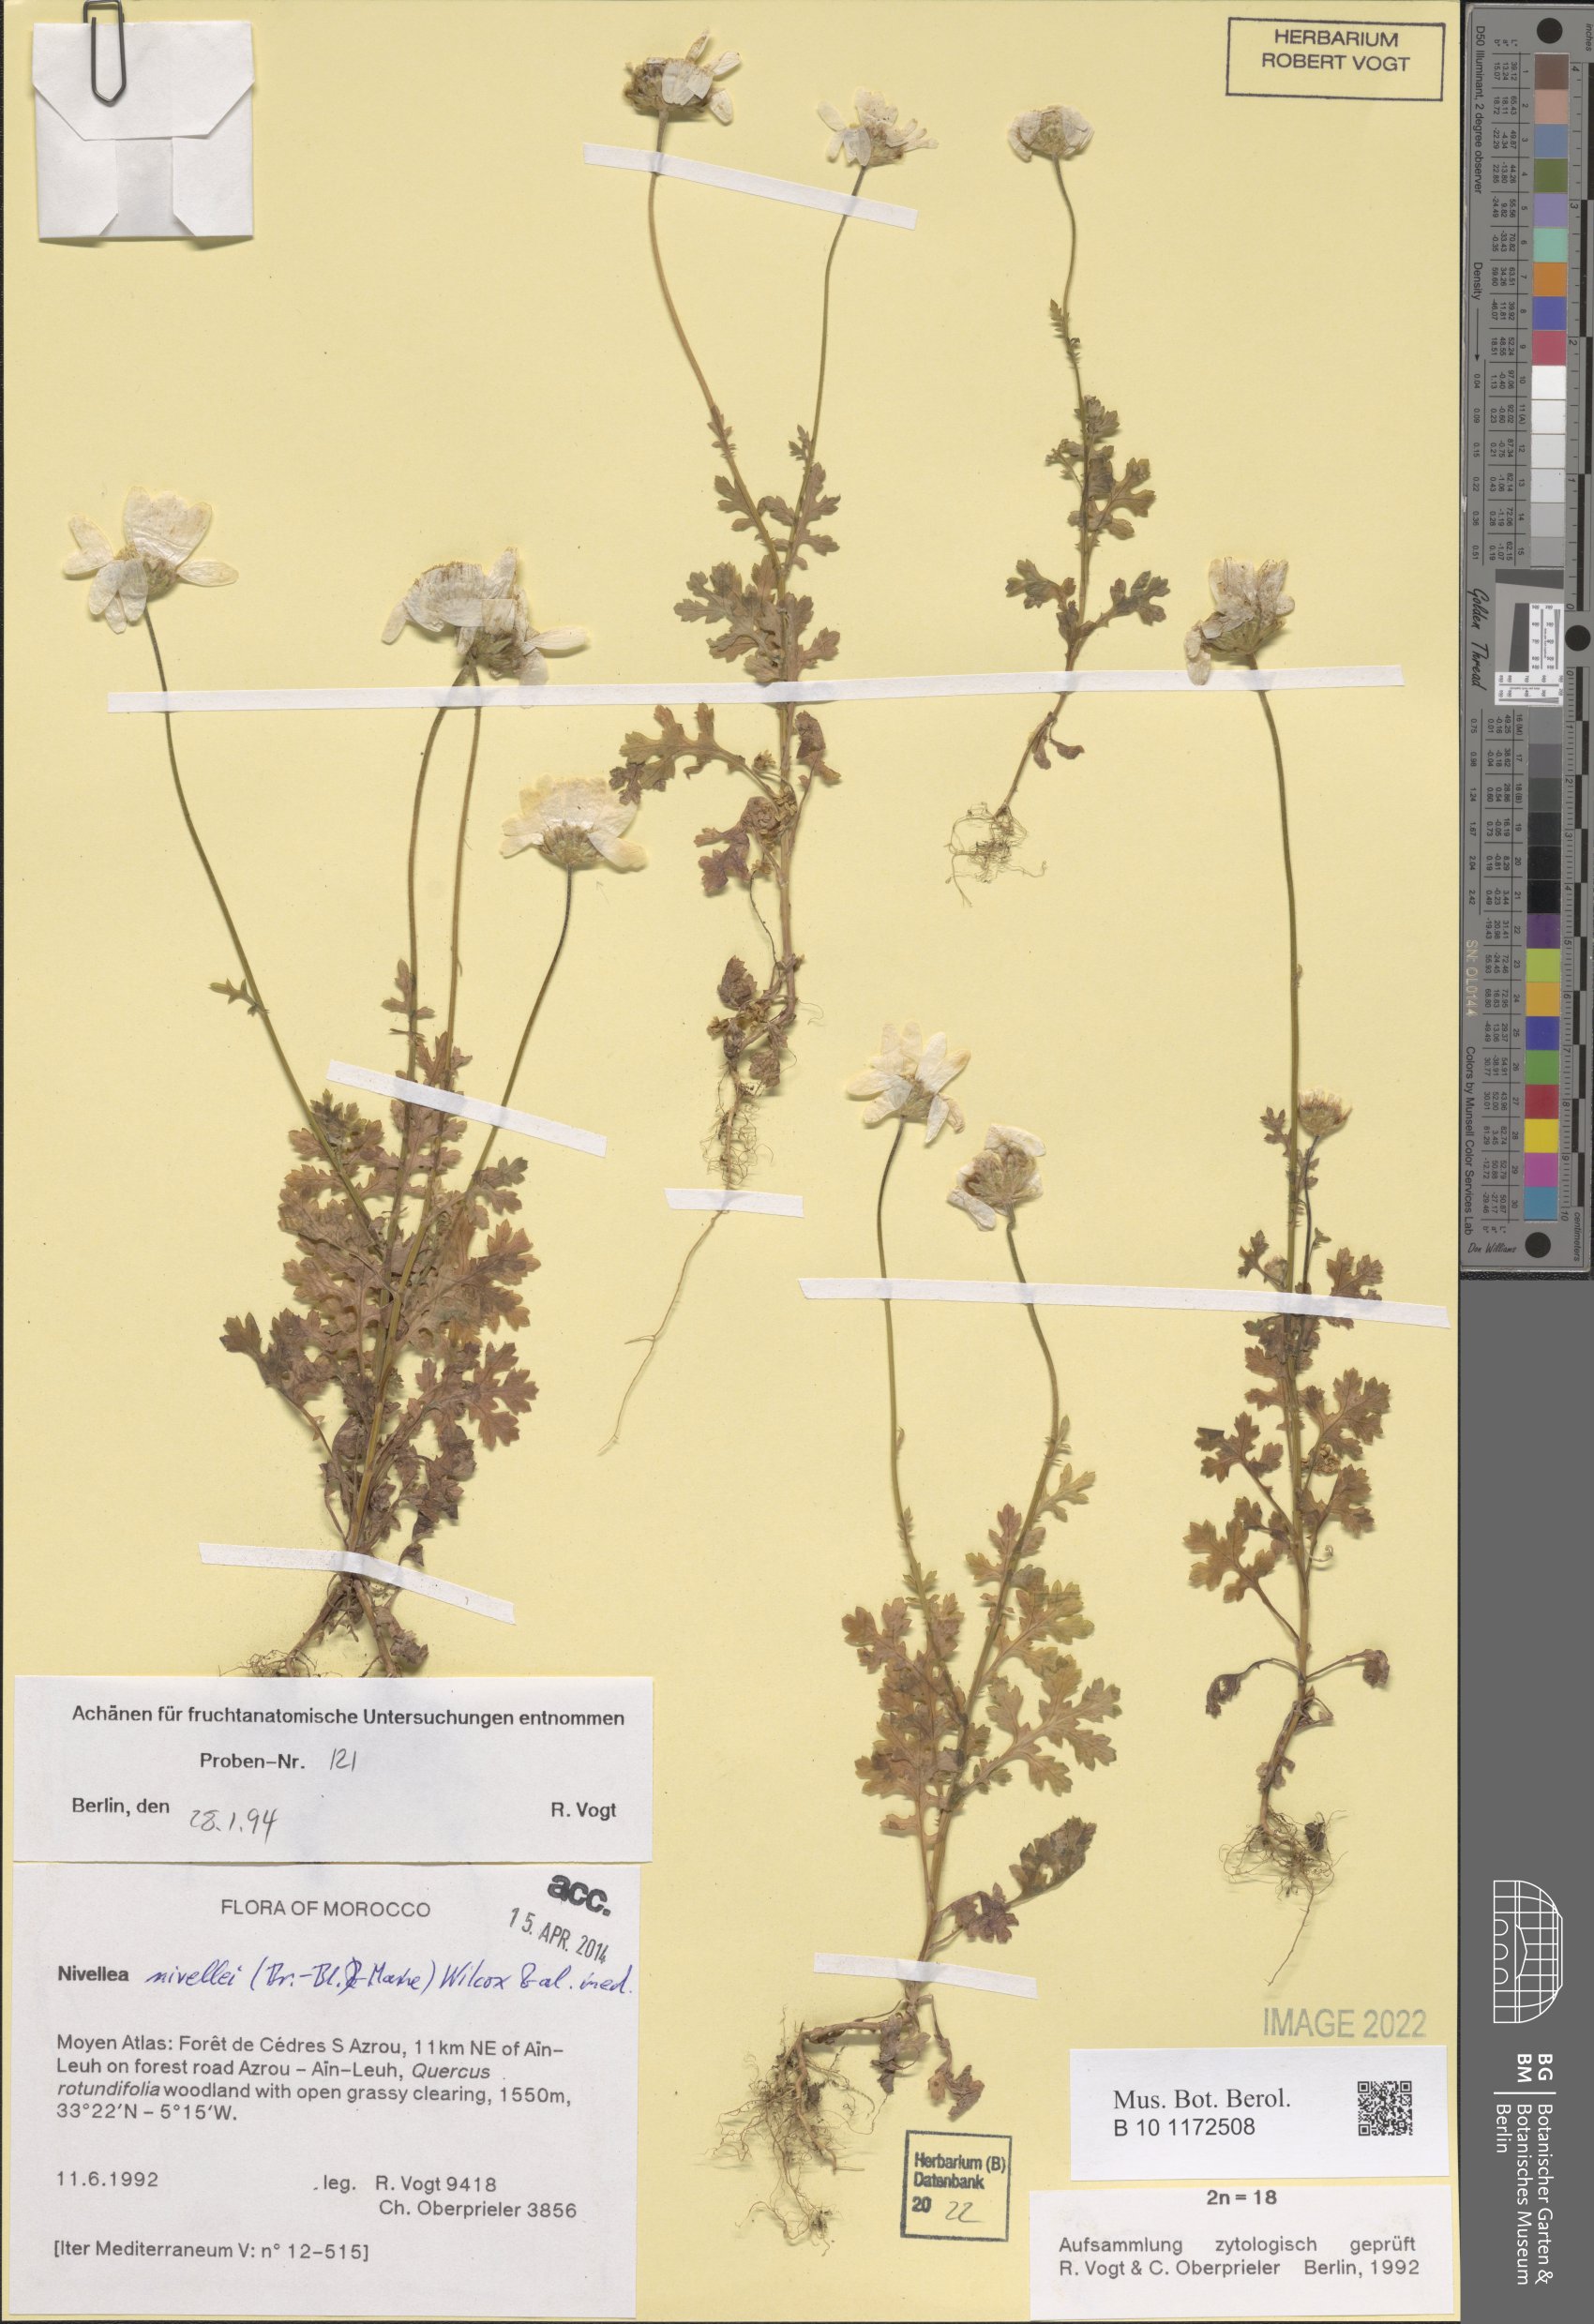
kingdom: Plantae
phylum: Tracheophyta
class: Magnoliopsida
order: Asterales
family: Asteraceae
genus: Nivellea
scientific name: Nivellea nivellei
